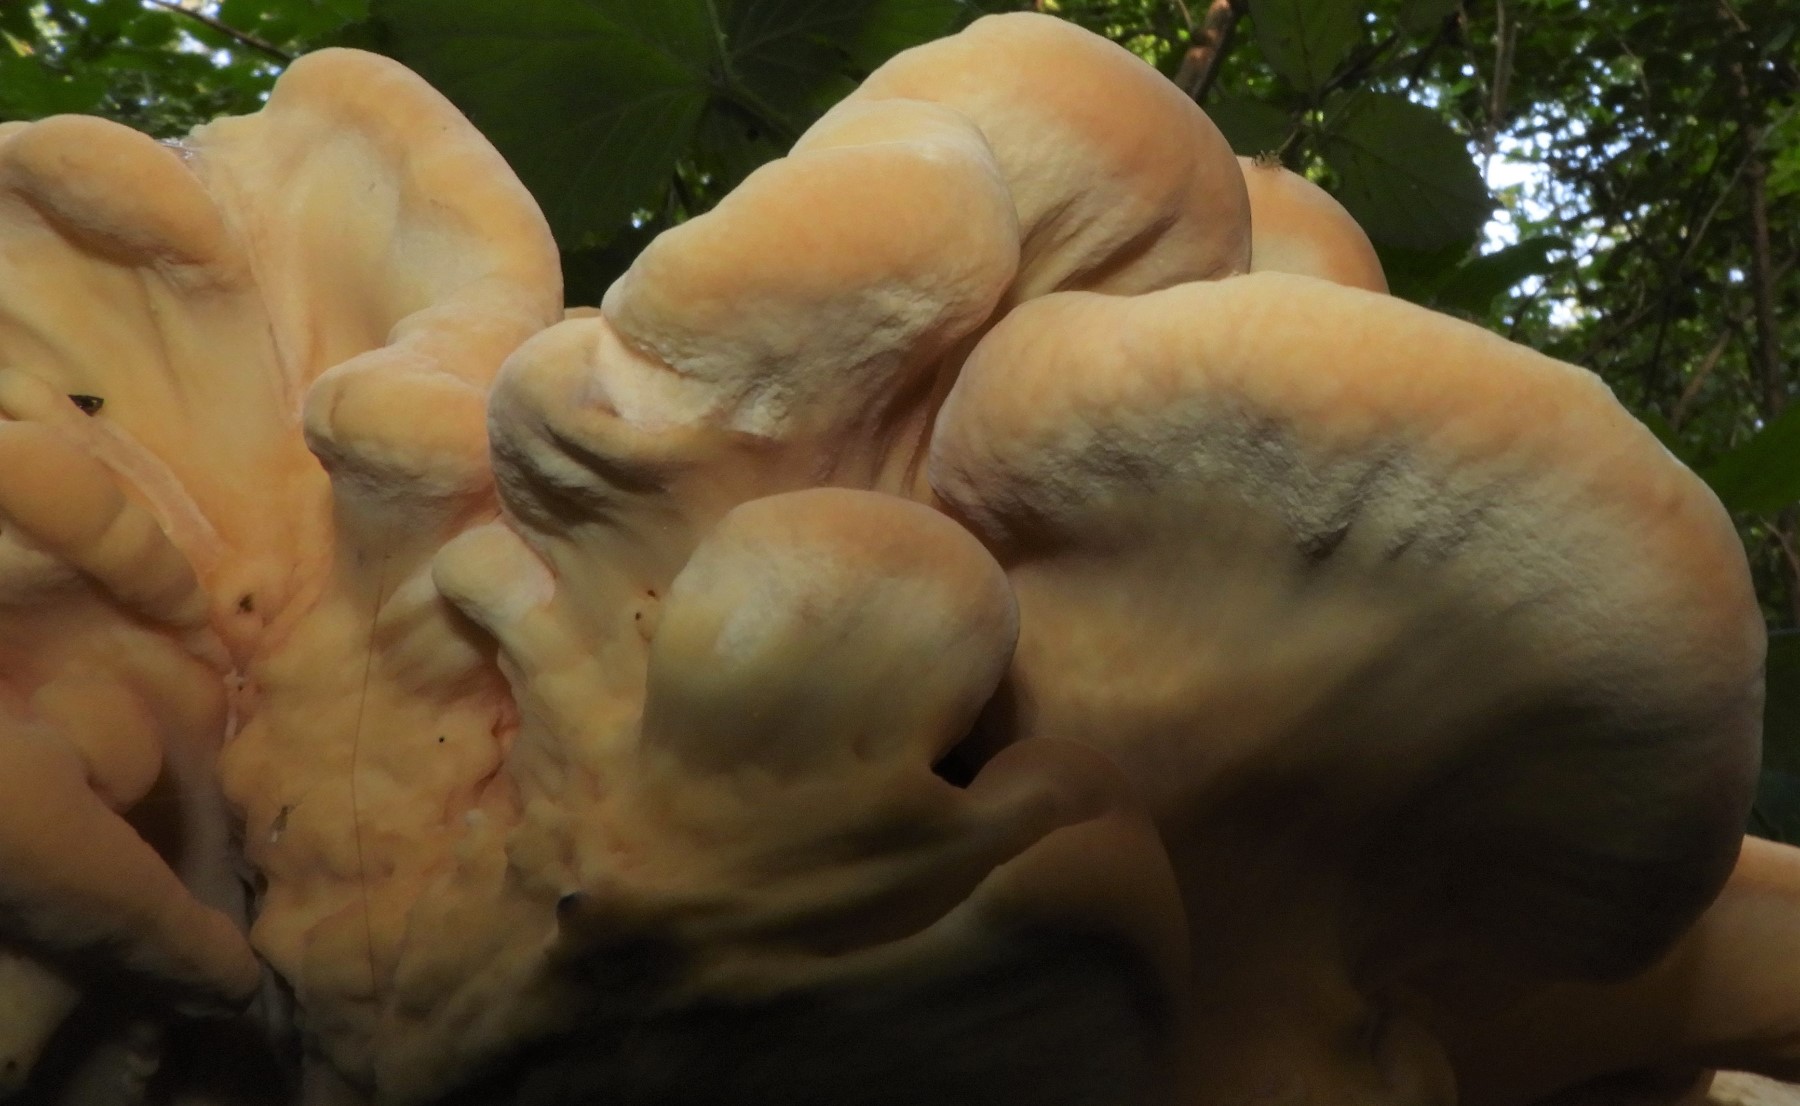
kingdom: Fungi
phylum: Basidiomycota
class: Agaricomycetes
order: Polyporales
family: Laetiporaceae
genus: Laetiporus
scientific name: Laetiporus sulphureus
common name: svovlporesvamp
